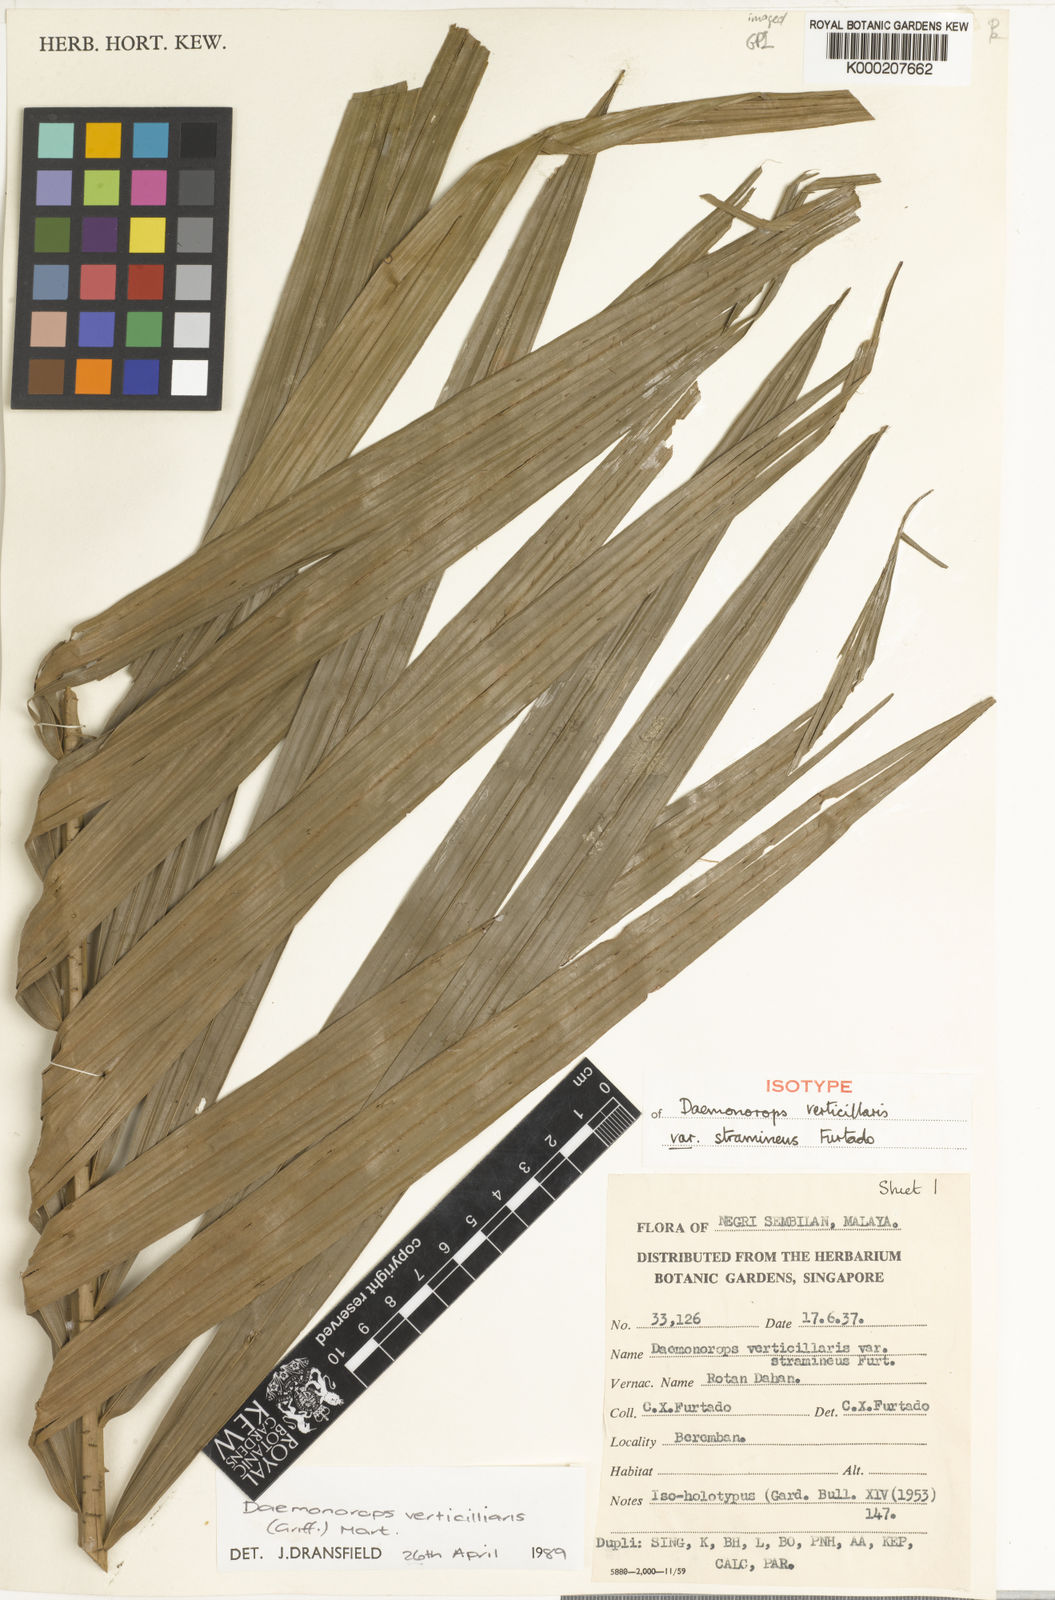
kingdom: Plantae
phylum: Tracheophyta
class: Liliopsida
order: Arecales
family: Arecaceae
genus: Calamus
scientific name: Calamus verticillaris
